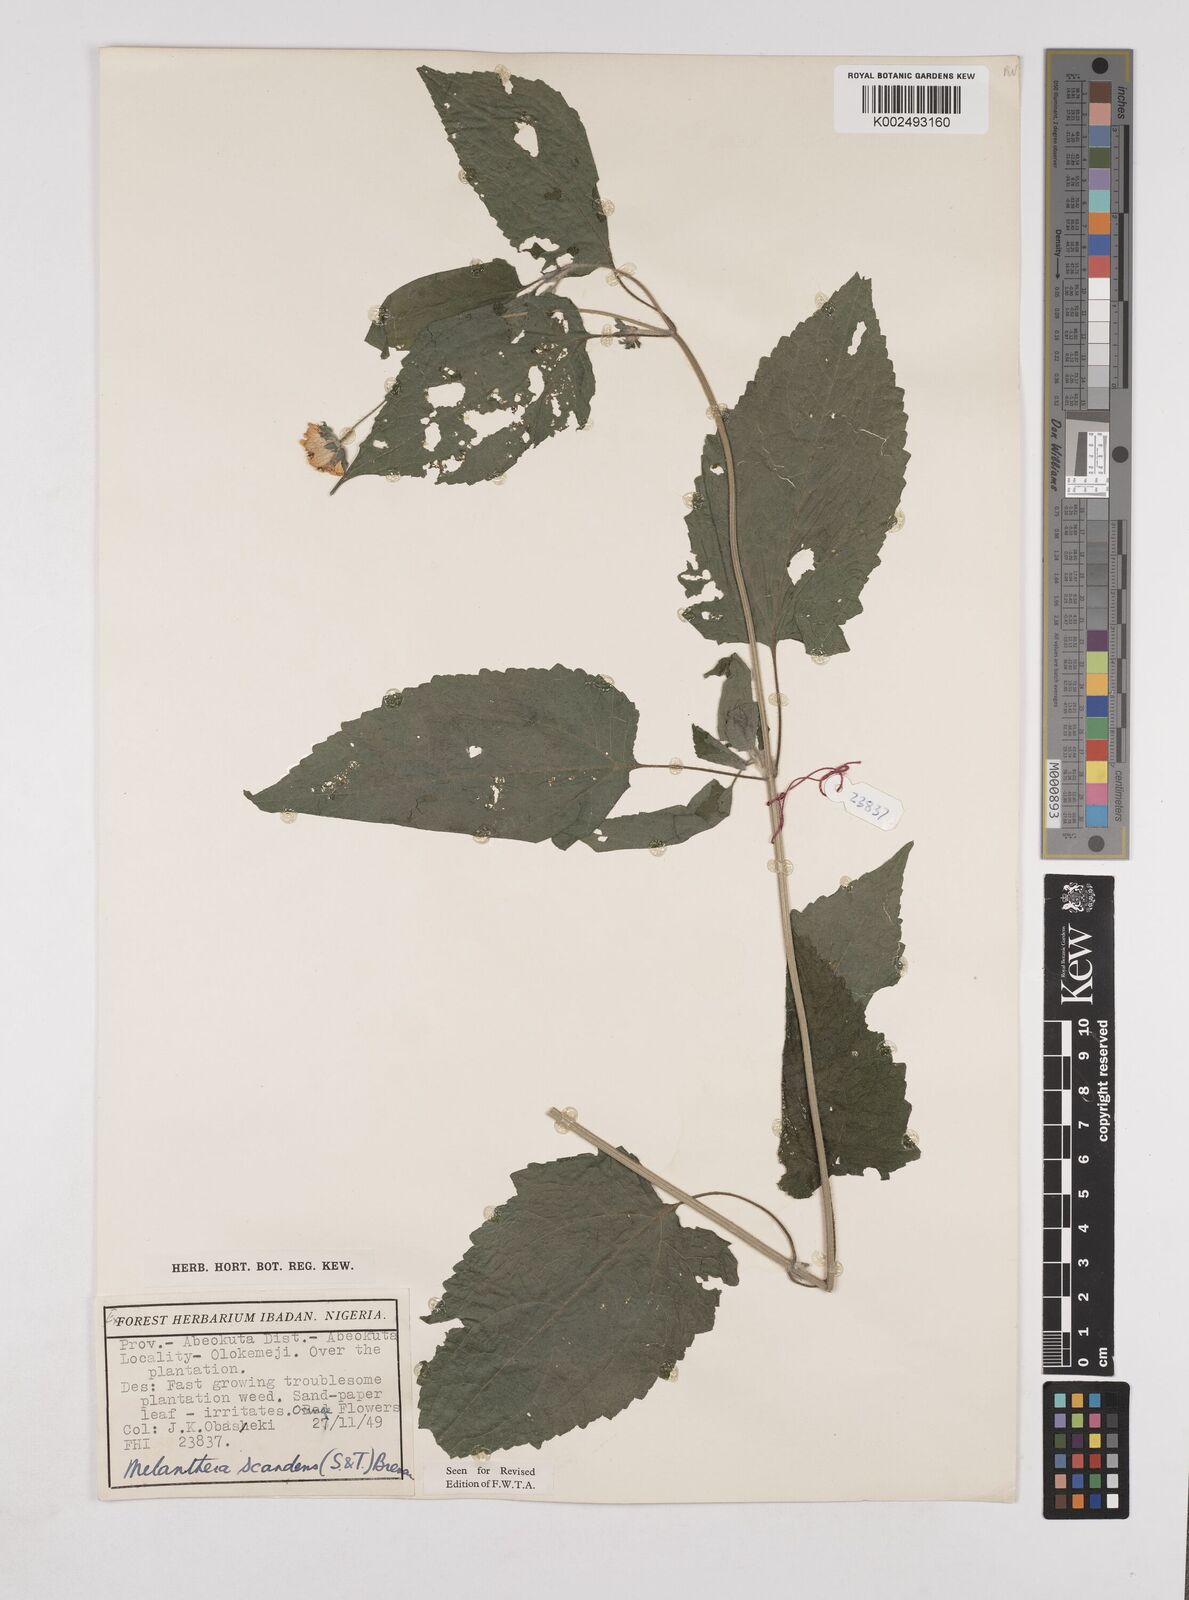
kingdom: Plantae
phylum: Tracheophyta
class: Magnoliopsida
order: Asterales
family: Asteraceae
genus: Lipotriche
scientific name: Lipotriche scandens
